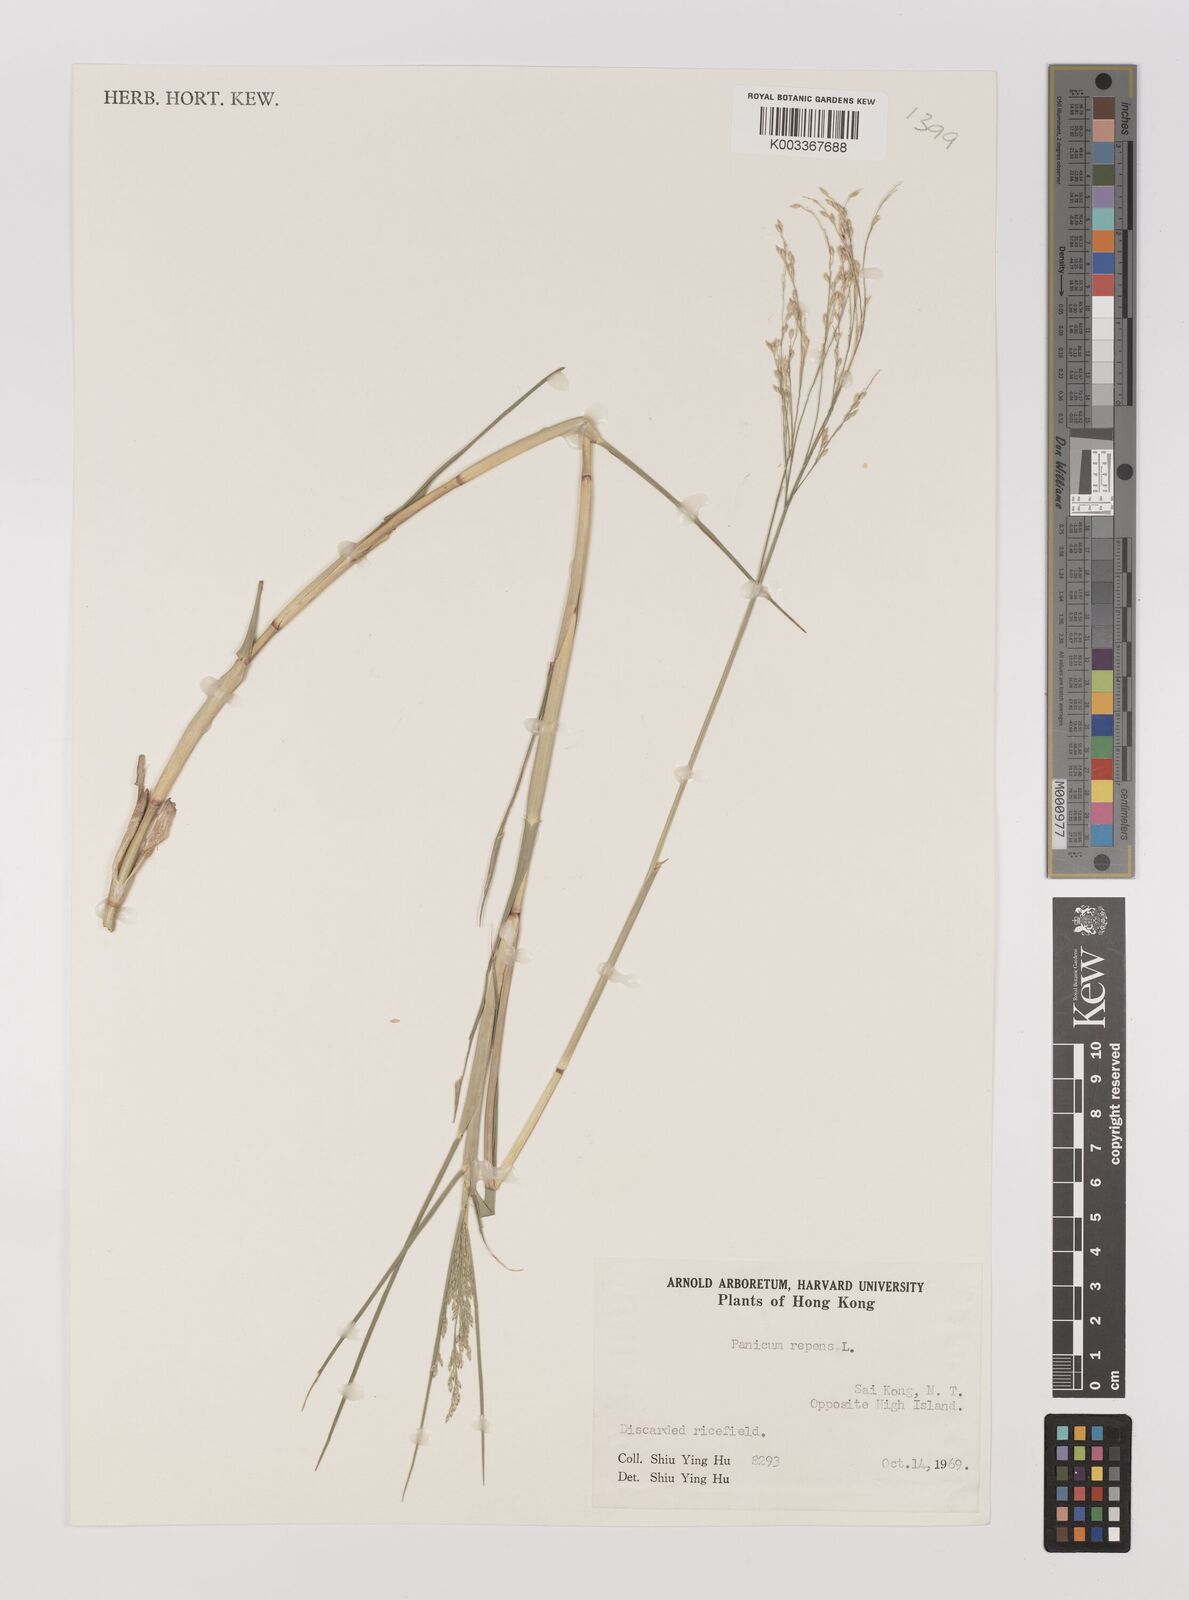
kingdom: Plantae
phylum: Tracheophyta
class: Liliopsida
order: Poales
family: Poaceae
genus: Panicum
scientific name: Panicum repens
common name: Torpedo grass
